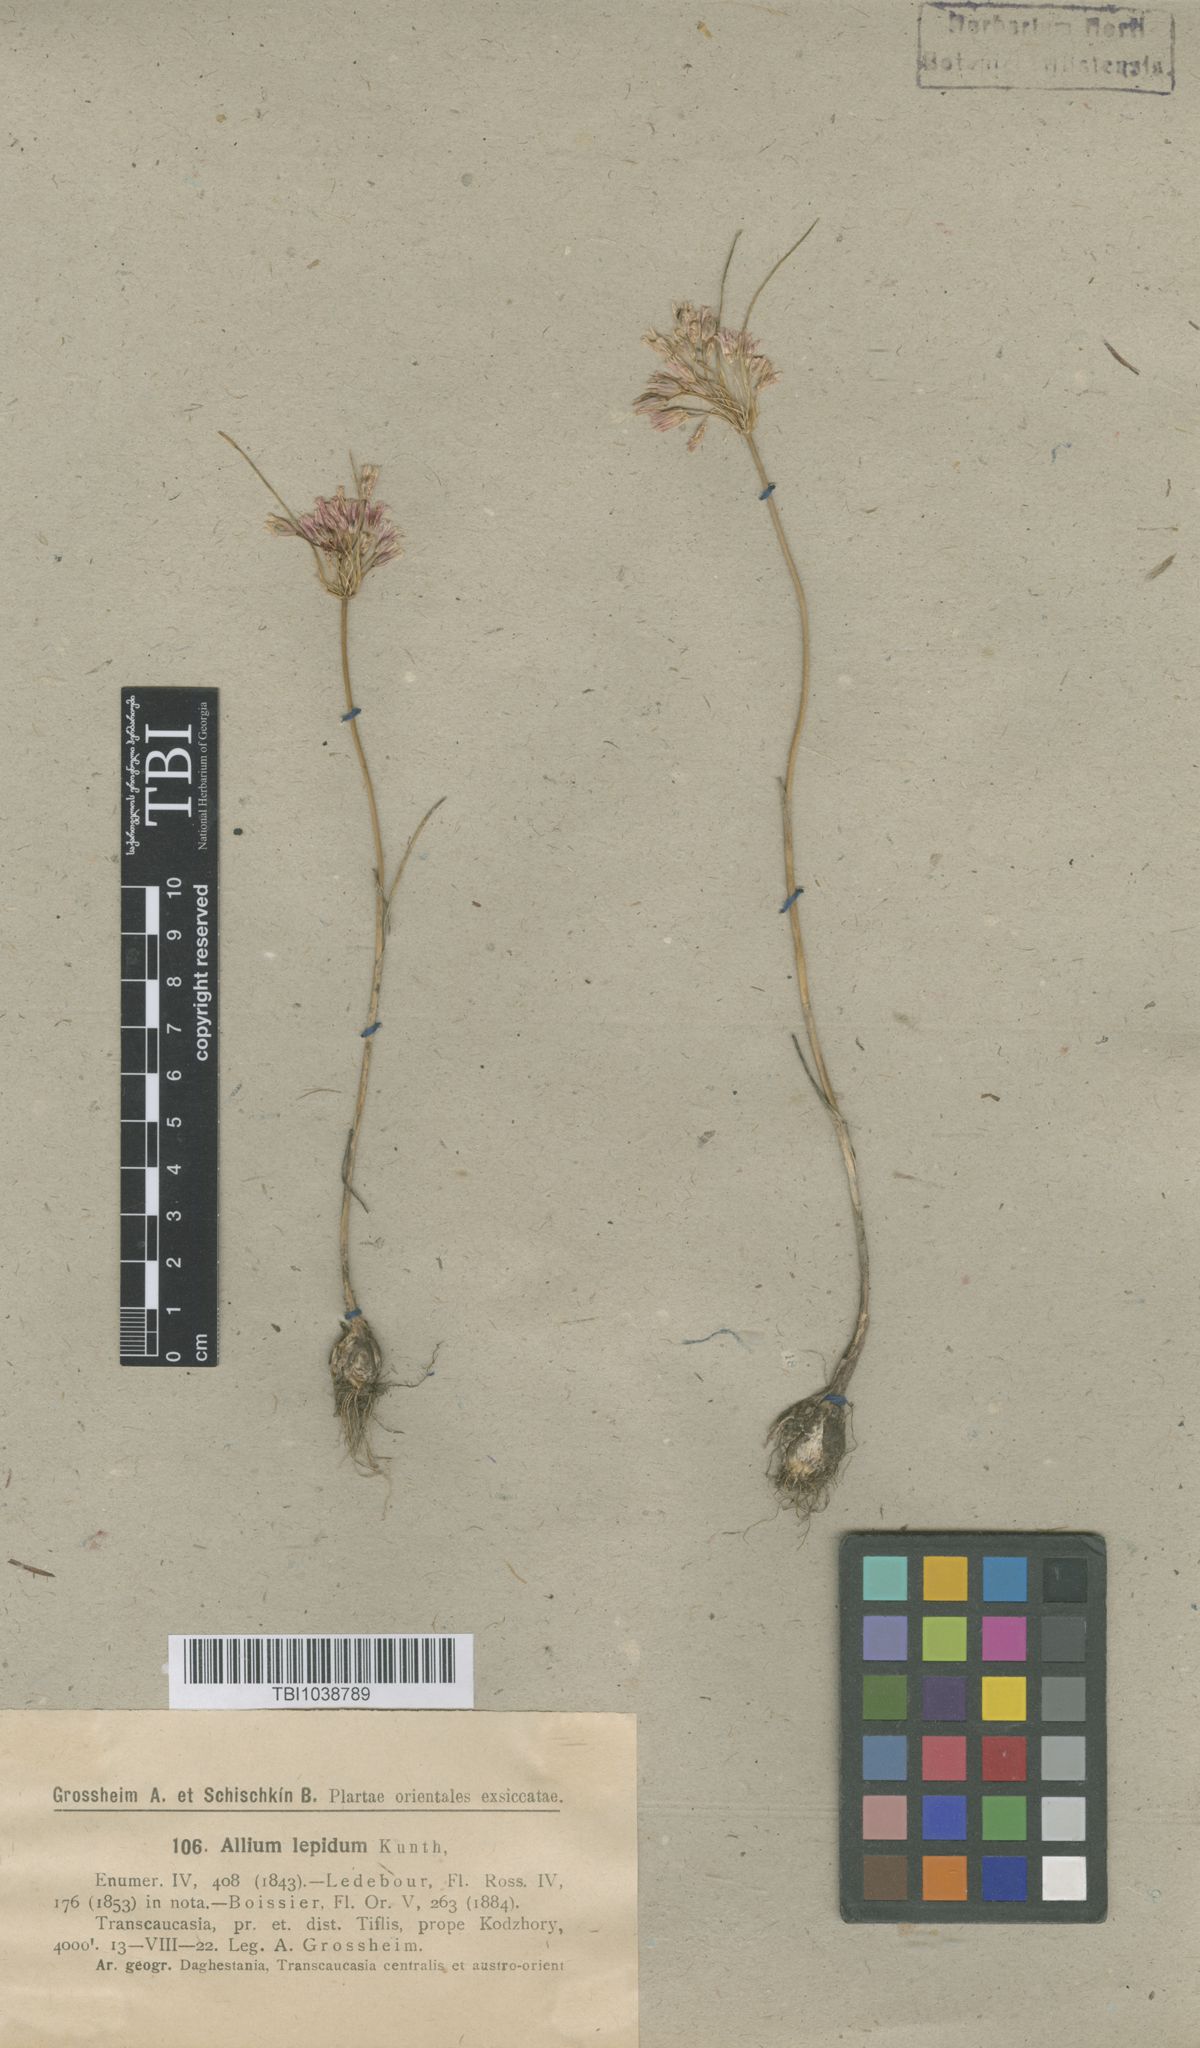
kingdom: Plantae
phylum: Tracheophyta
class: Liliopsida
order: Asparagales
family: Amaryllidaceae
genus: Allium
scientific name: Allium kunthianum
